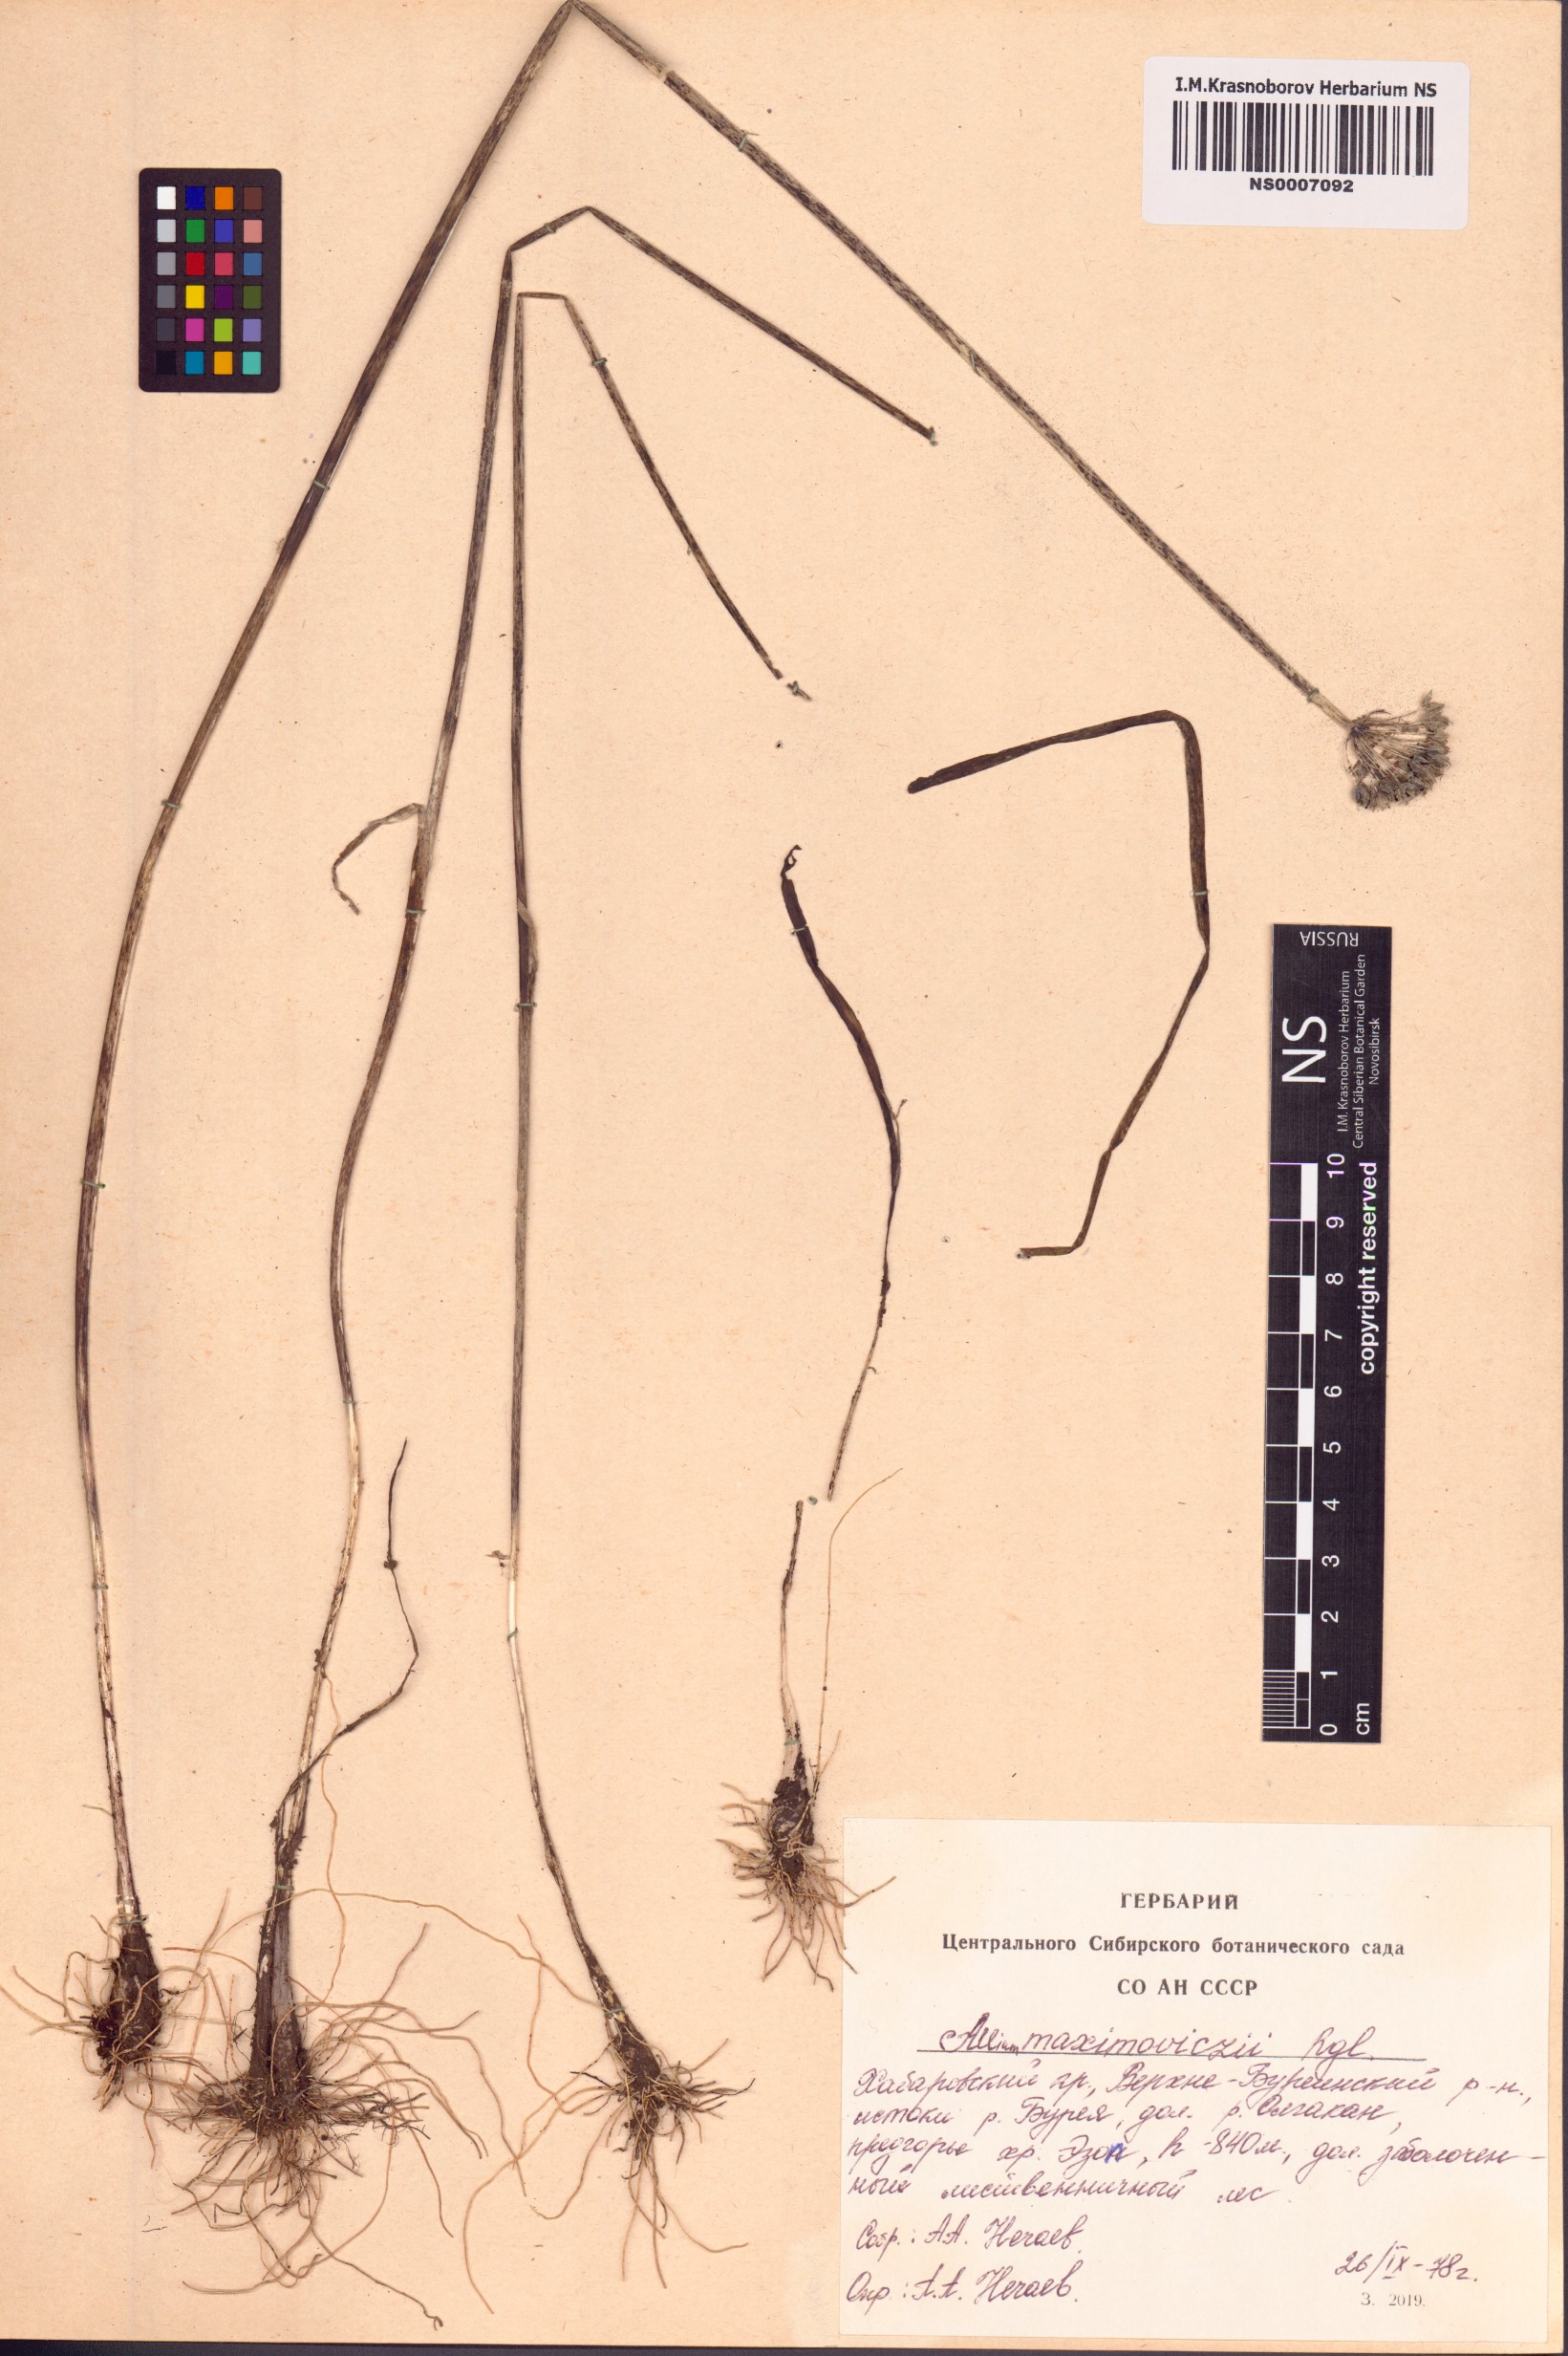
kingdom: Plantae
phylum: Tracheophyta
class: Liliopsida
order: Asparagales
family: Amaryllidaceae
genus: Allium
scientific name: Allium maximowiczii
